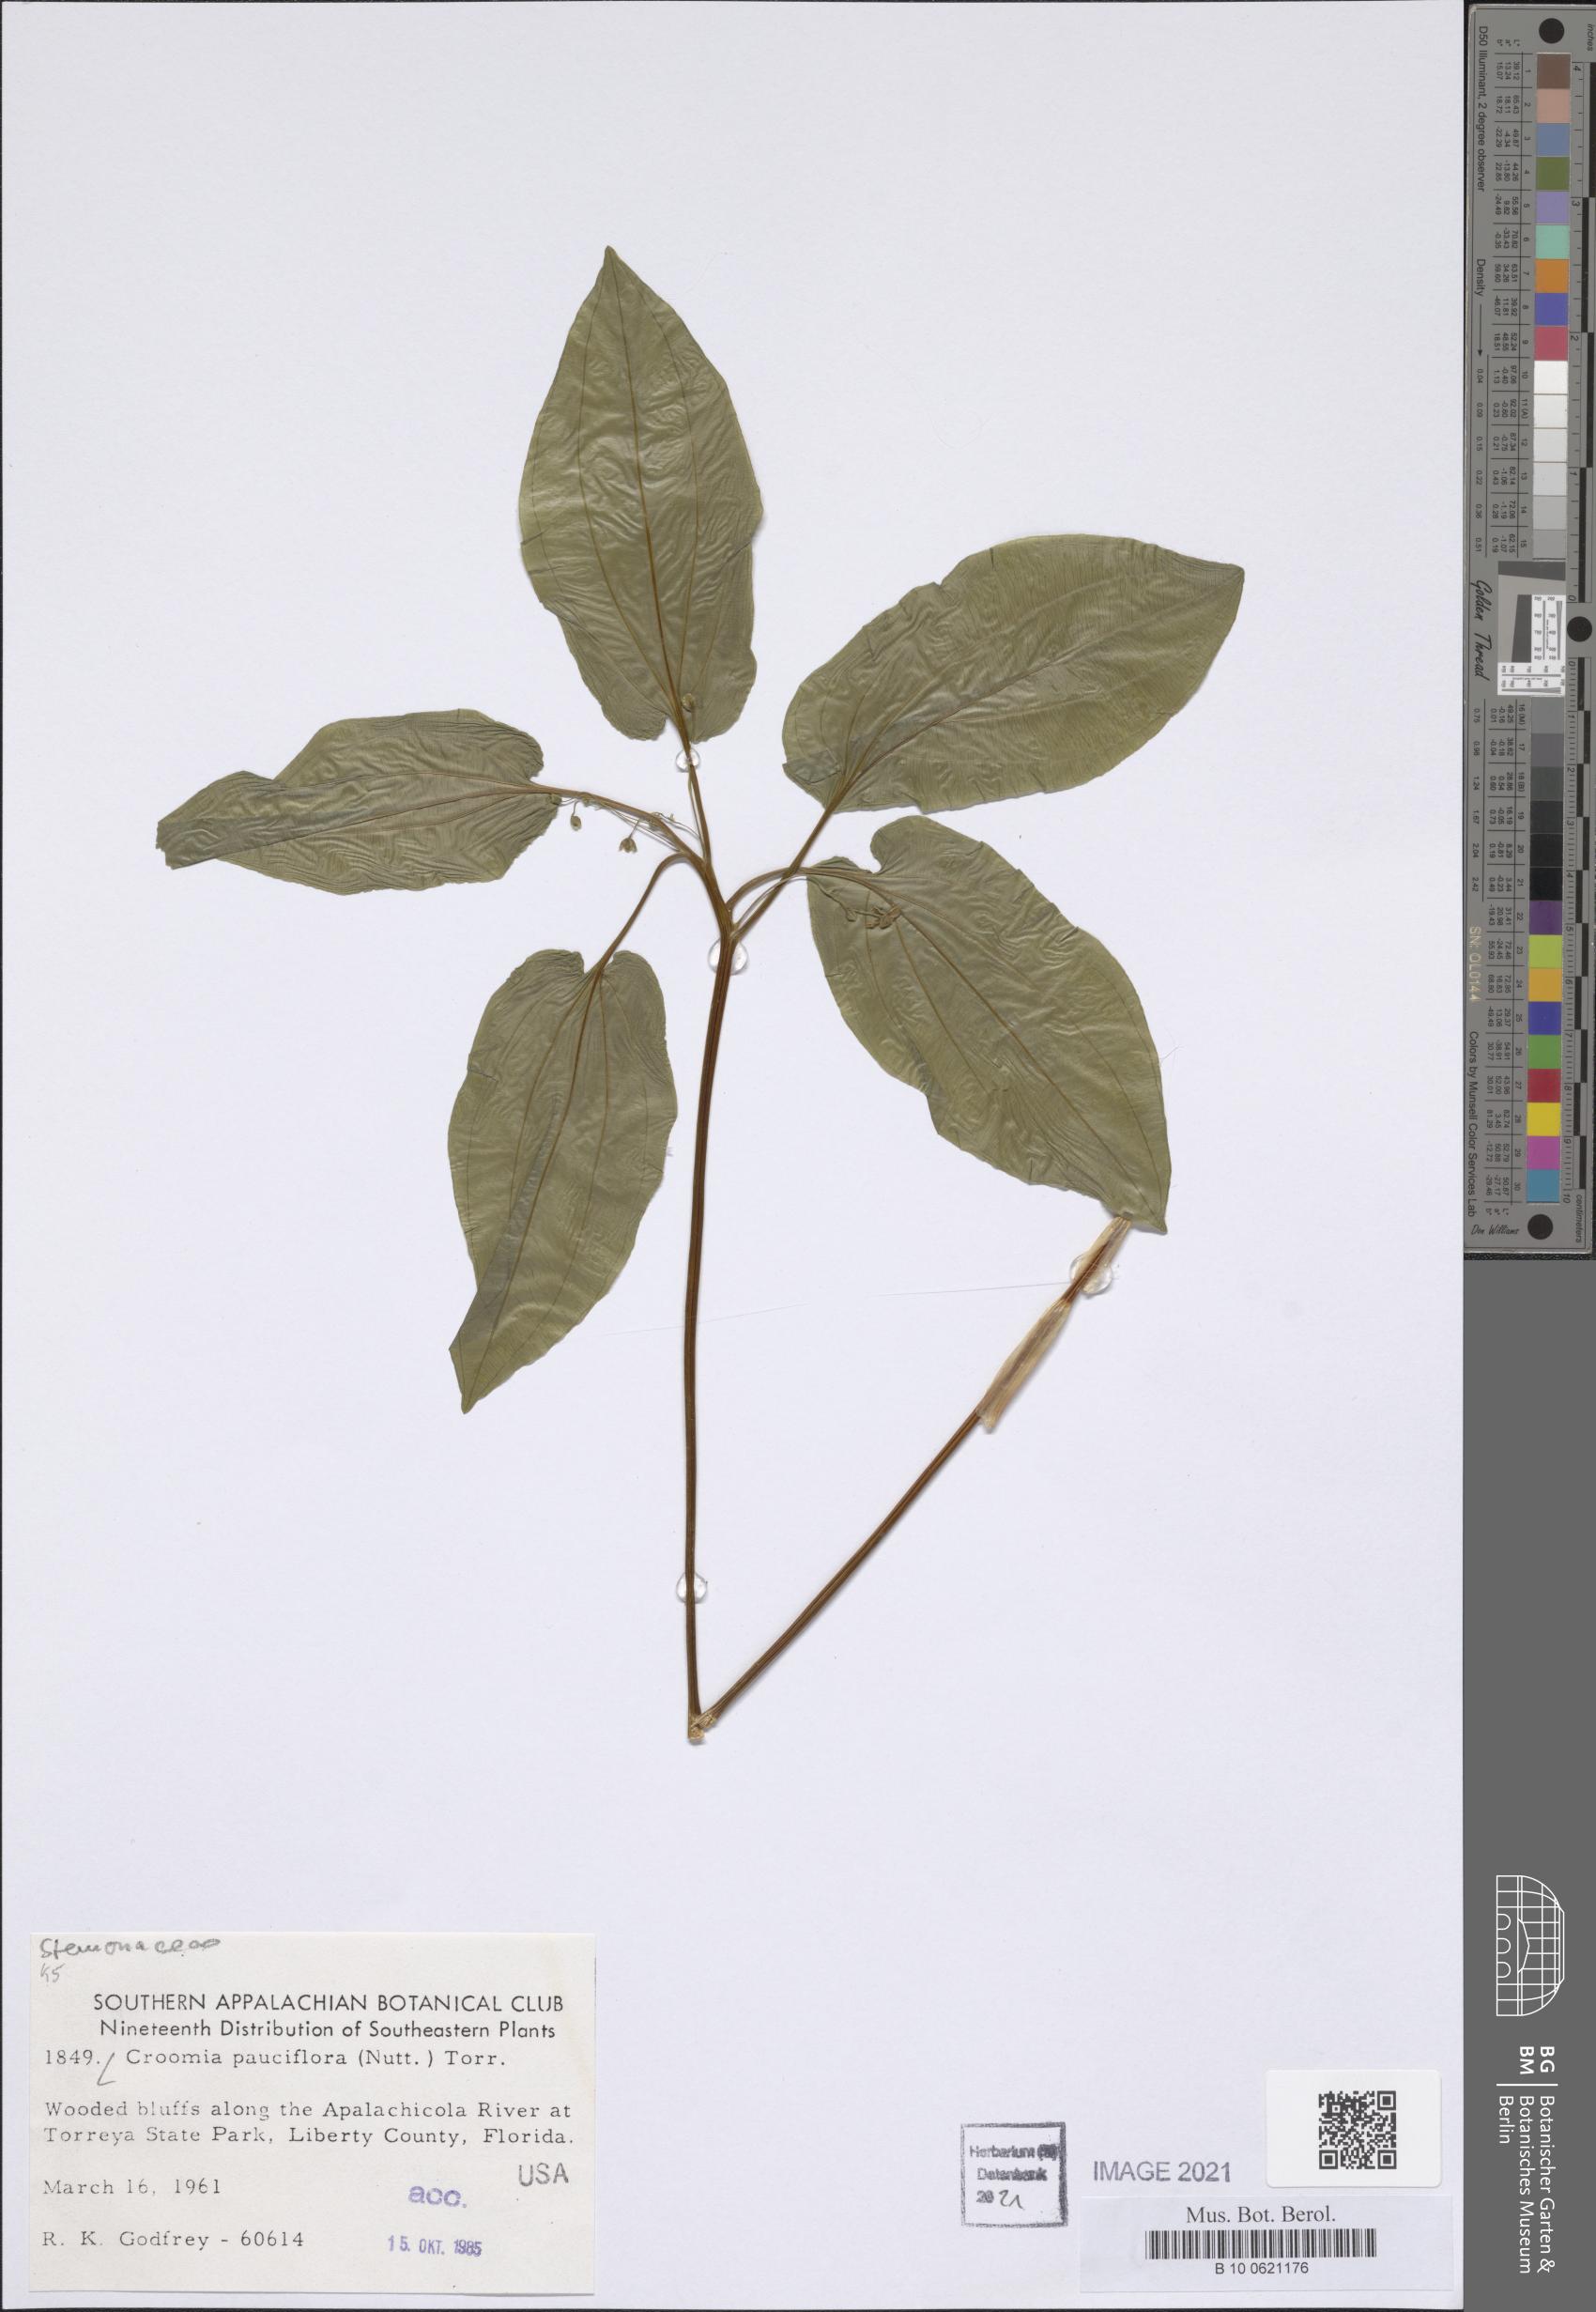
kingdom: Plantae
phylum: Tracheophyta
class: Liliopsida
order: Pandanales
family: Stemonaceae
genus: Croomia
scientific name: Croomia pauciflora
